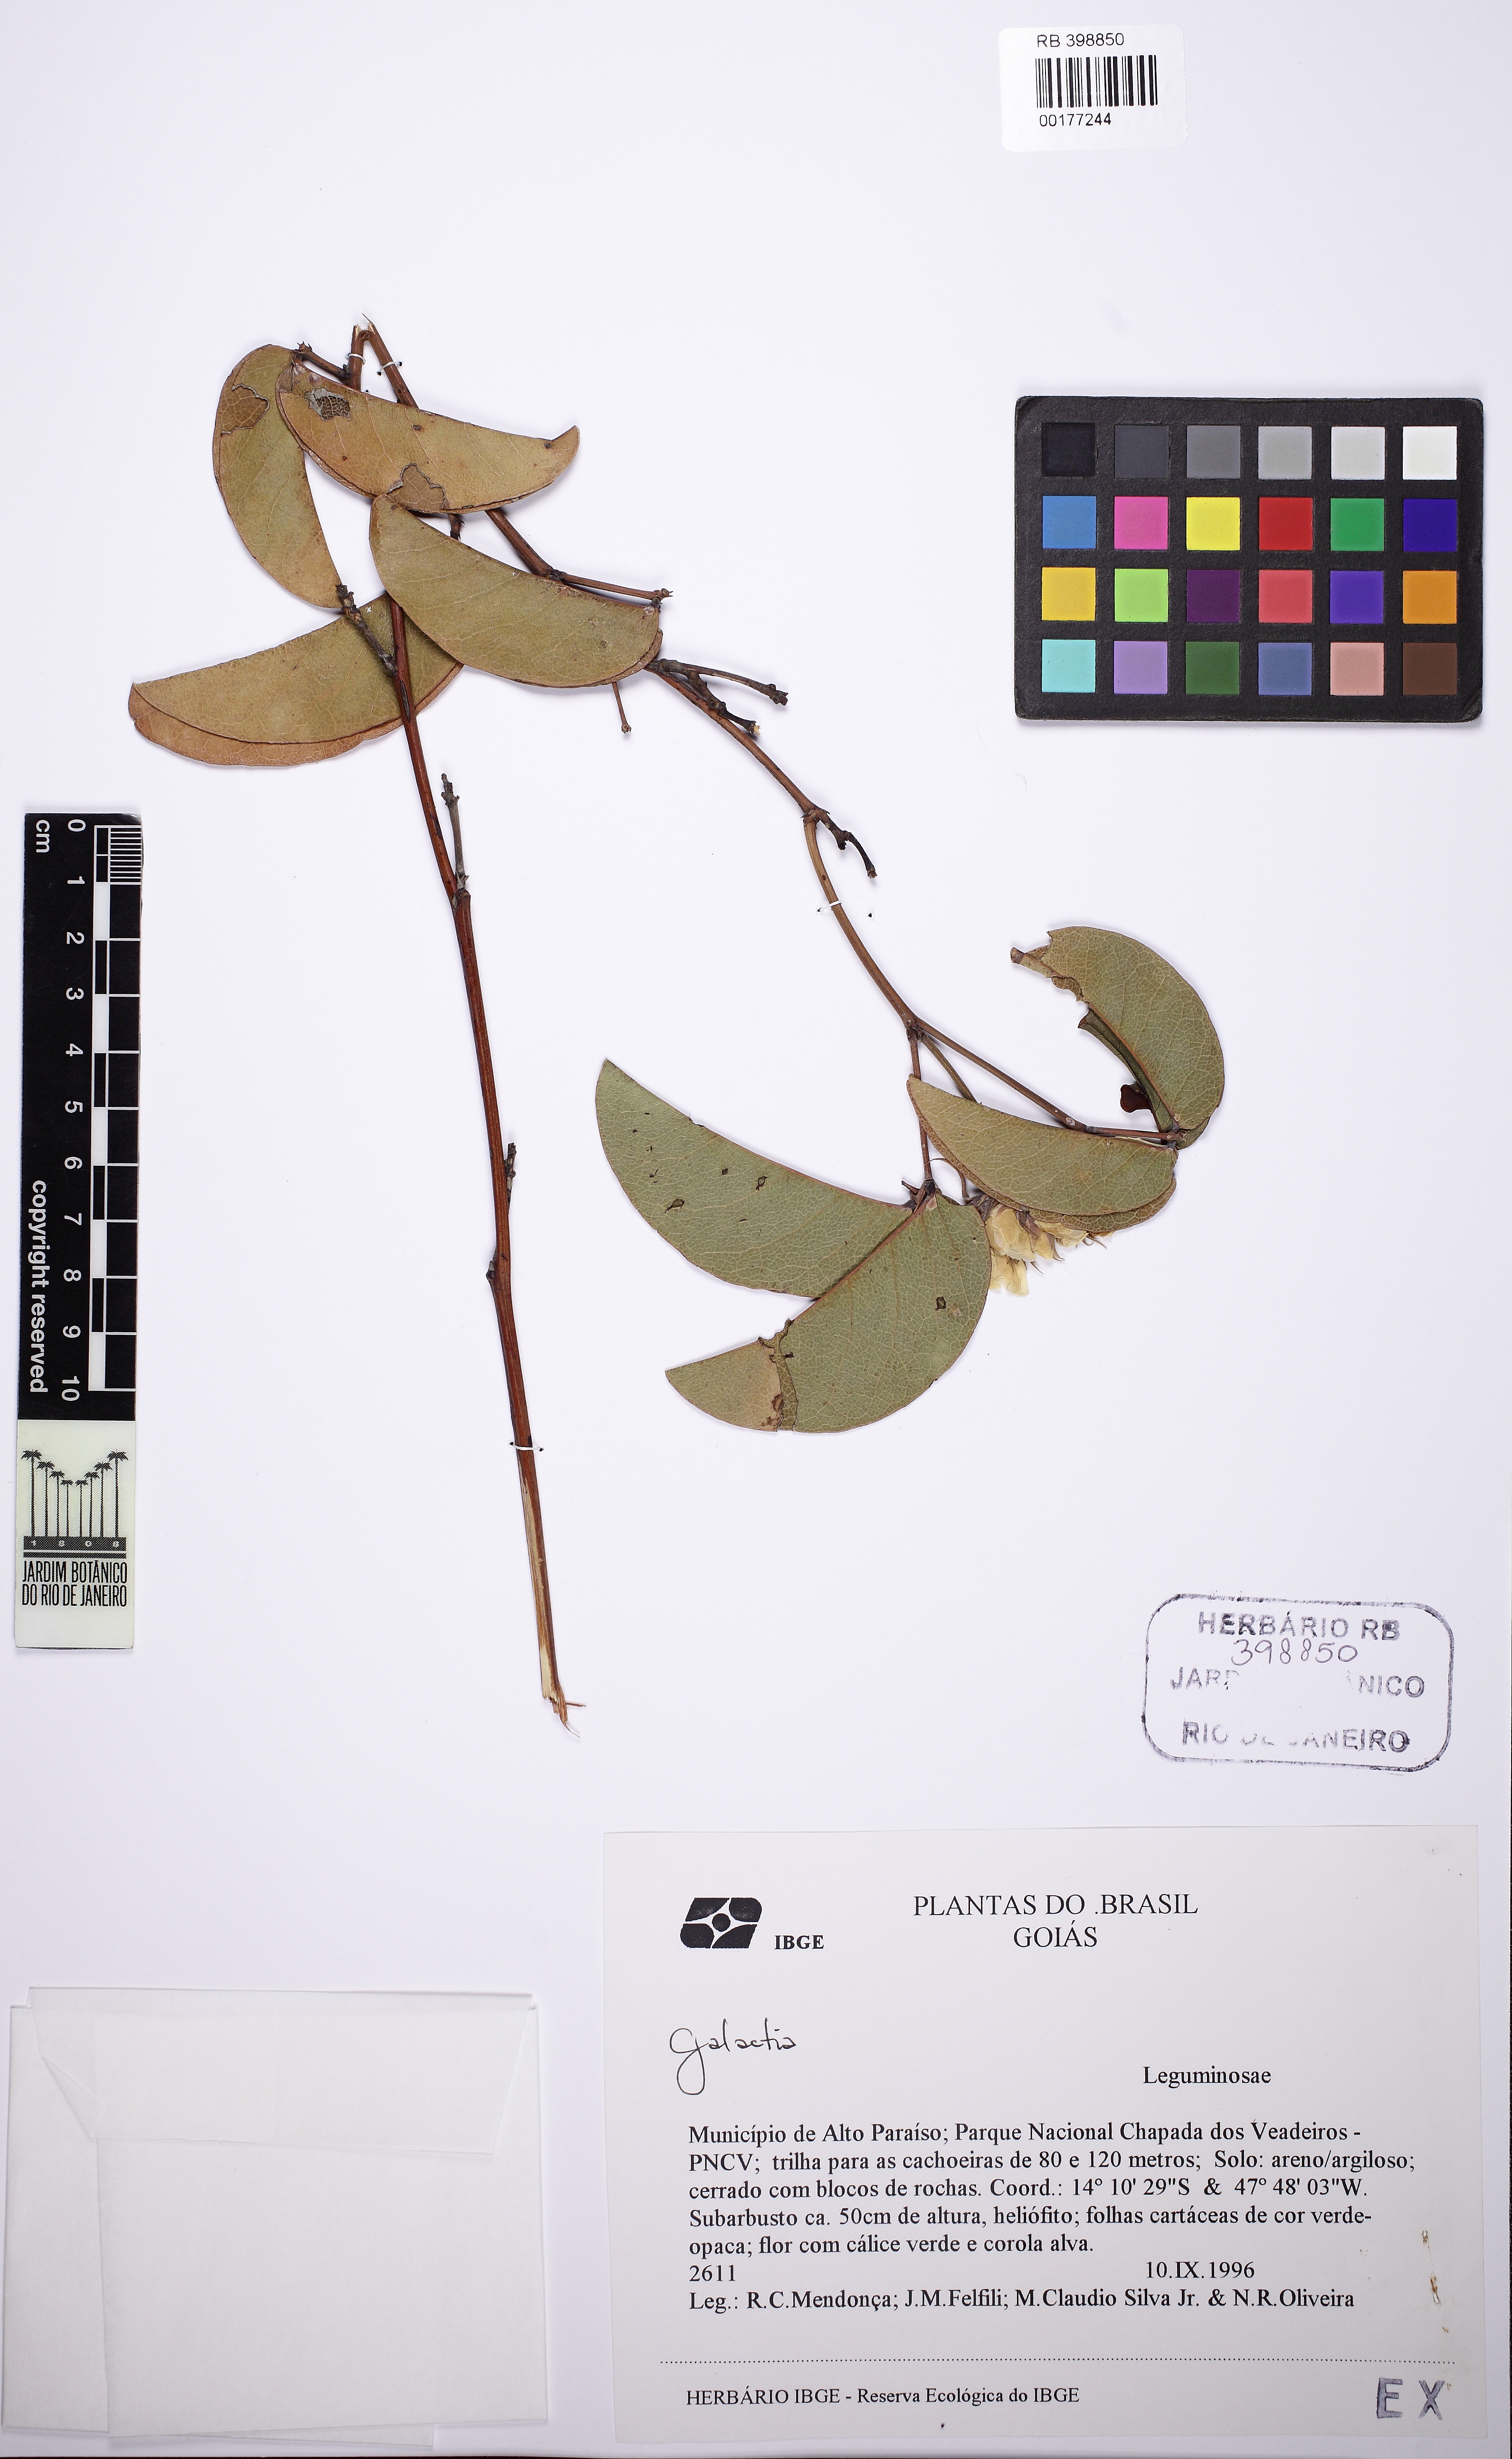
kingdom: Plantae
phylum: Tracheophyta
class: Magnoliopsida
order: Fabales
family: Fabaceae
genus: Betencourtia
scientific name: Betencourtia stereophylla
